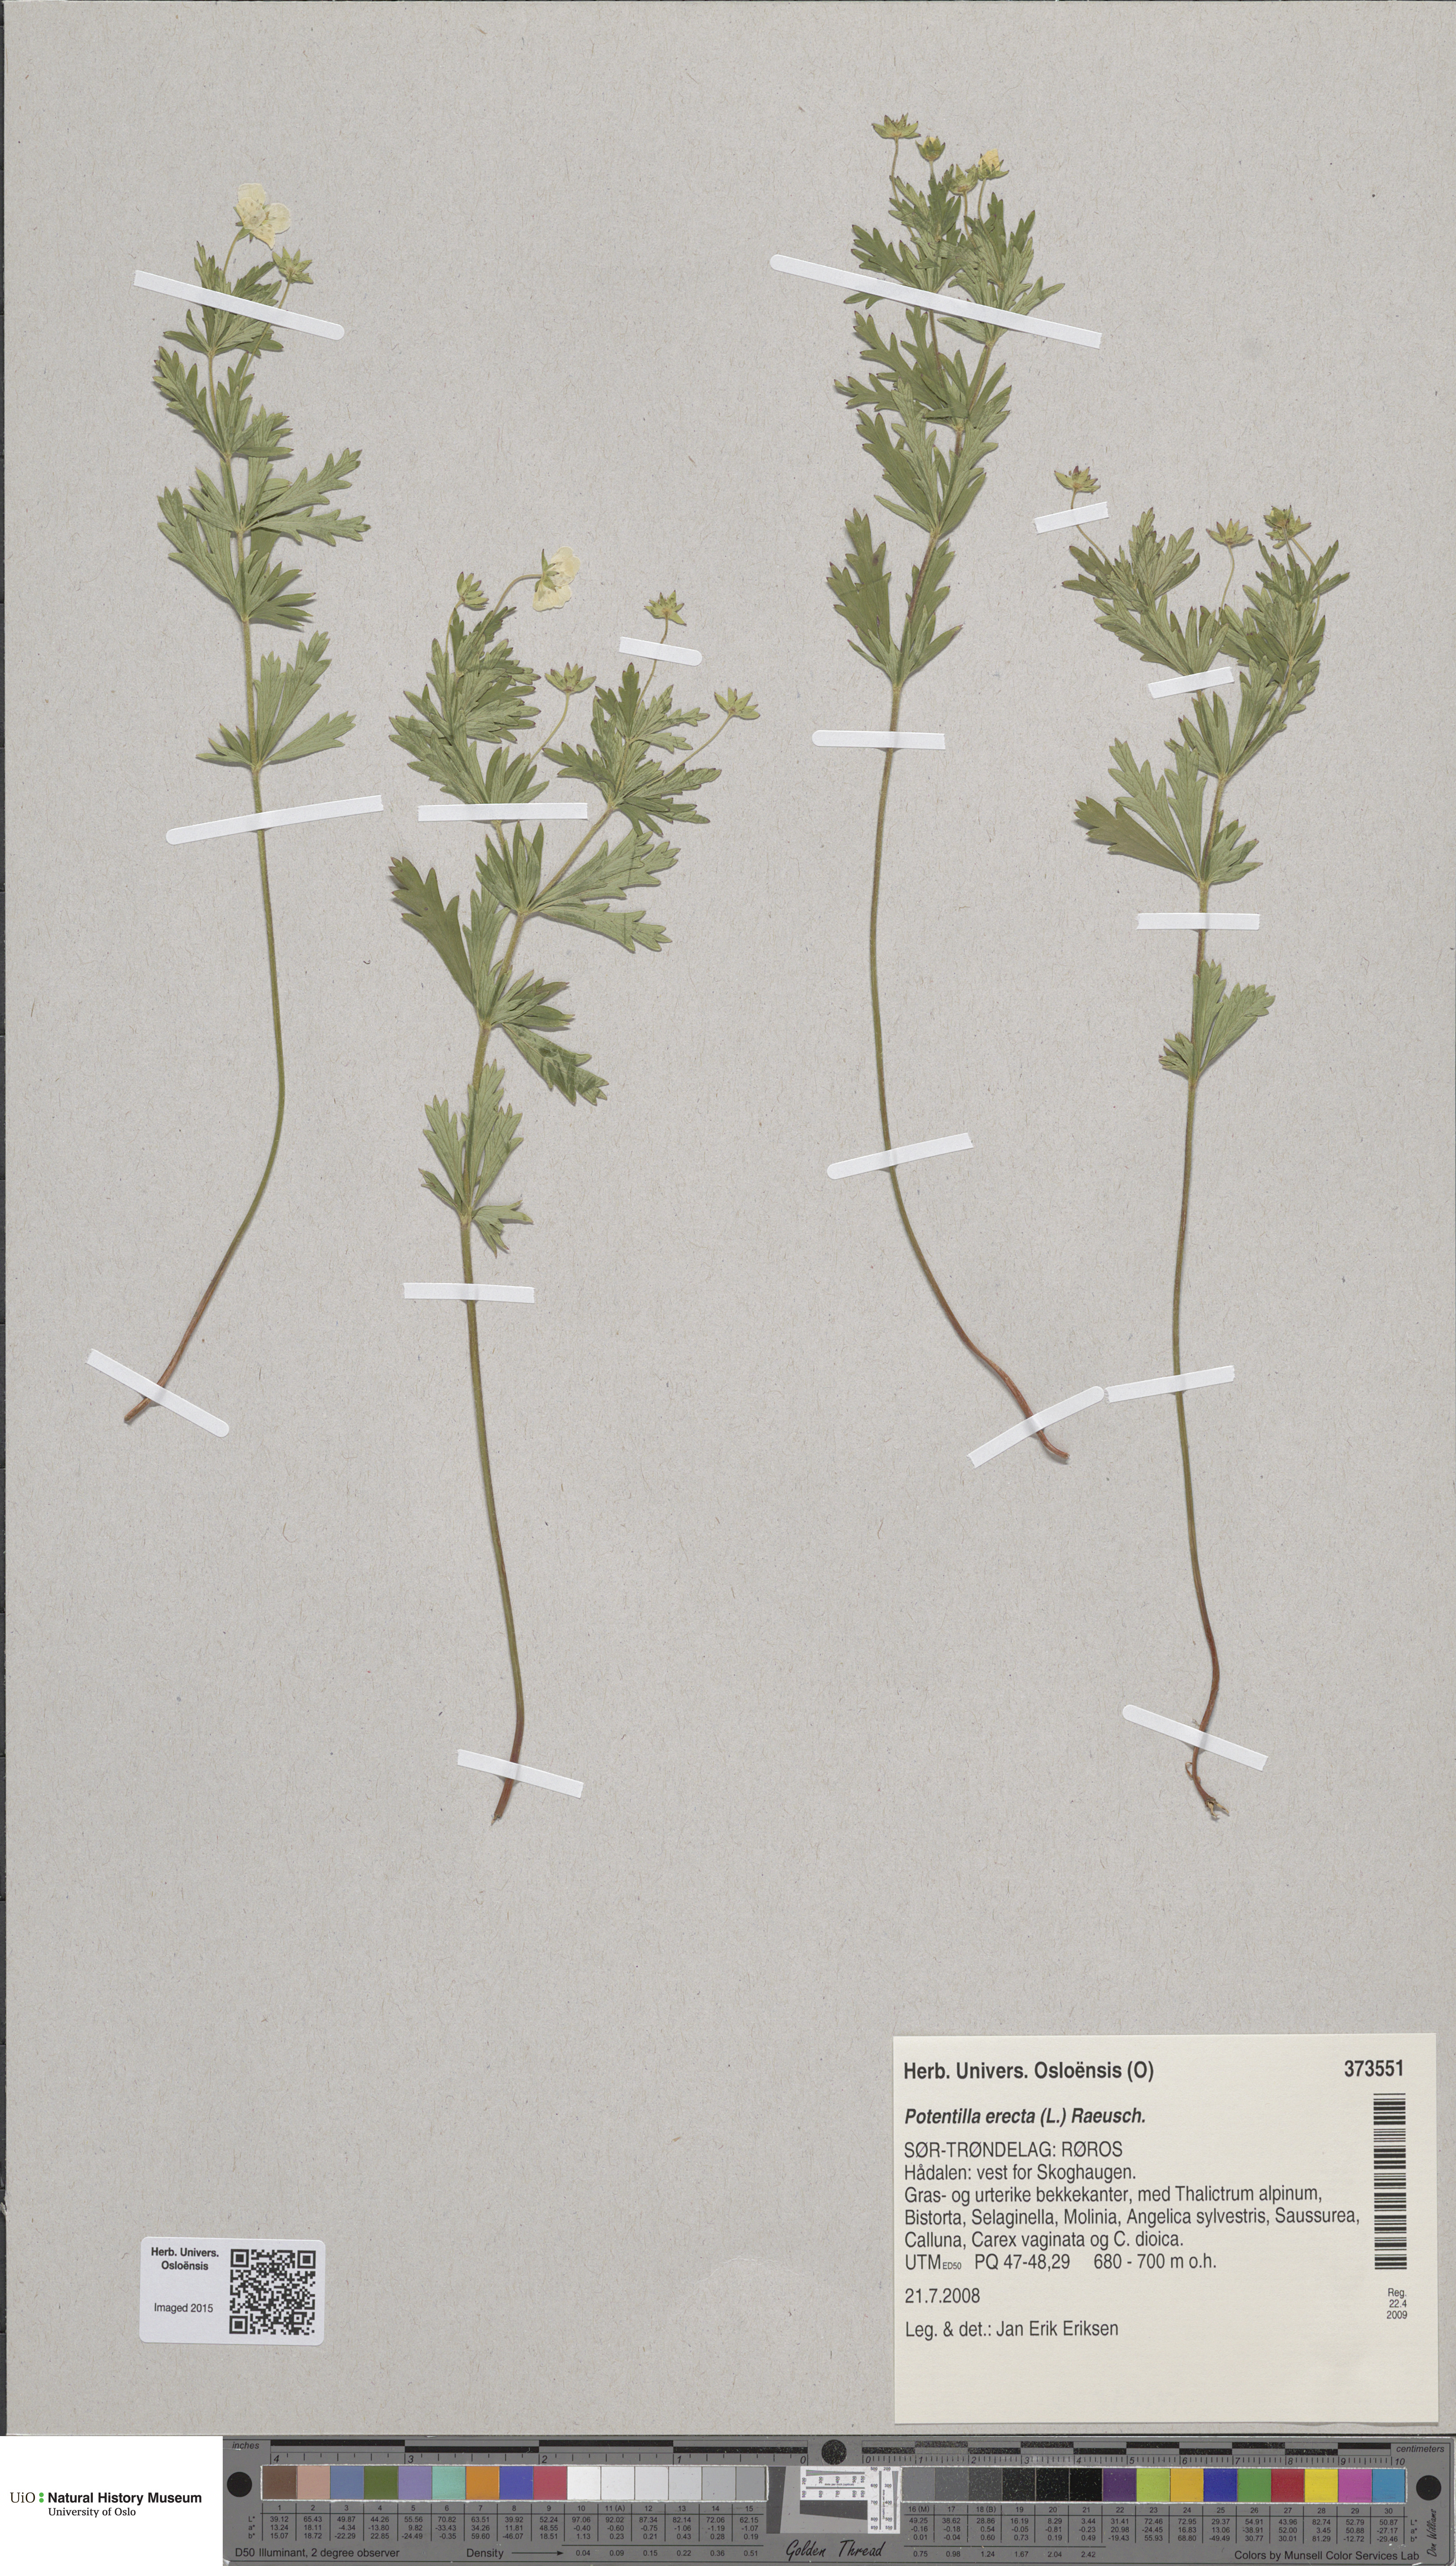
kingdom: Plantae
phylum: Tracheophyta
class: Magnoliopsida
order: Rosales
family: Rosaceae
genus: Potentilla
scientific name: Potentilla erecta
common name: Tormentil
